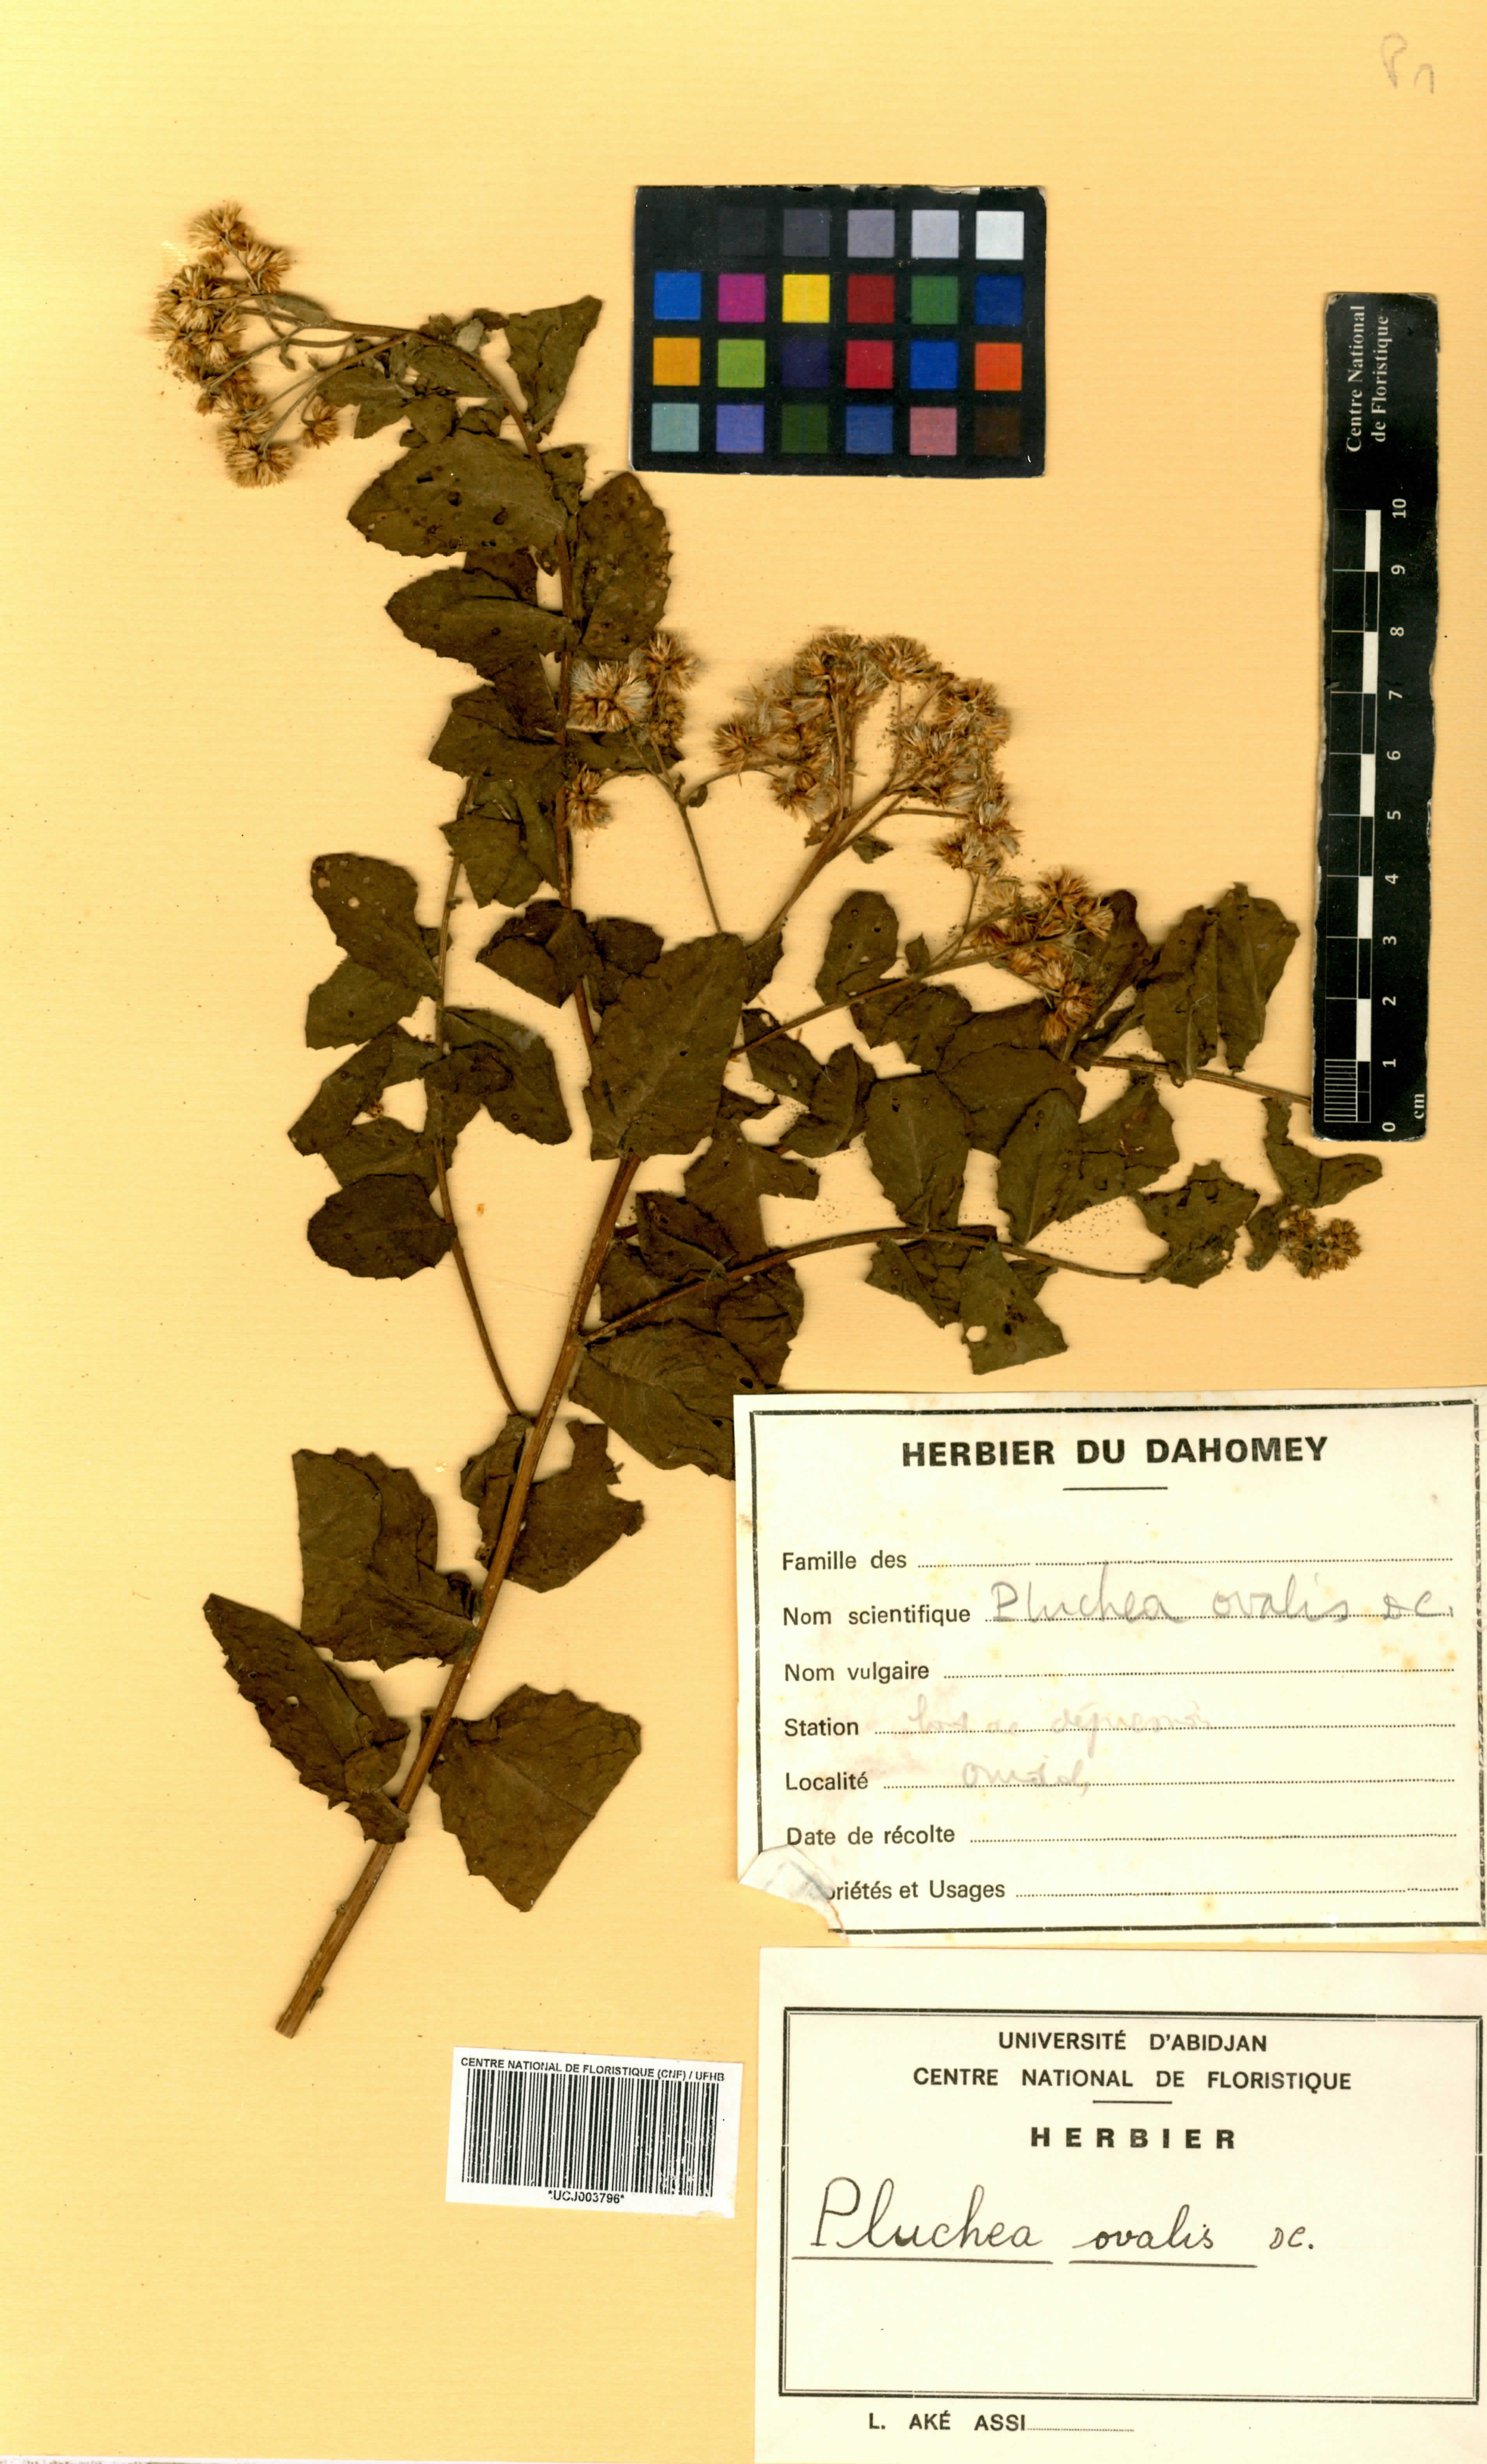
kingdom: Plantae
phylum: Tracheophyta
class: Magnoliopsida
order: Asterales
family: Asteraceae
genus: Pluchea
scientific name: Pluchea ovalis
